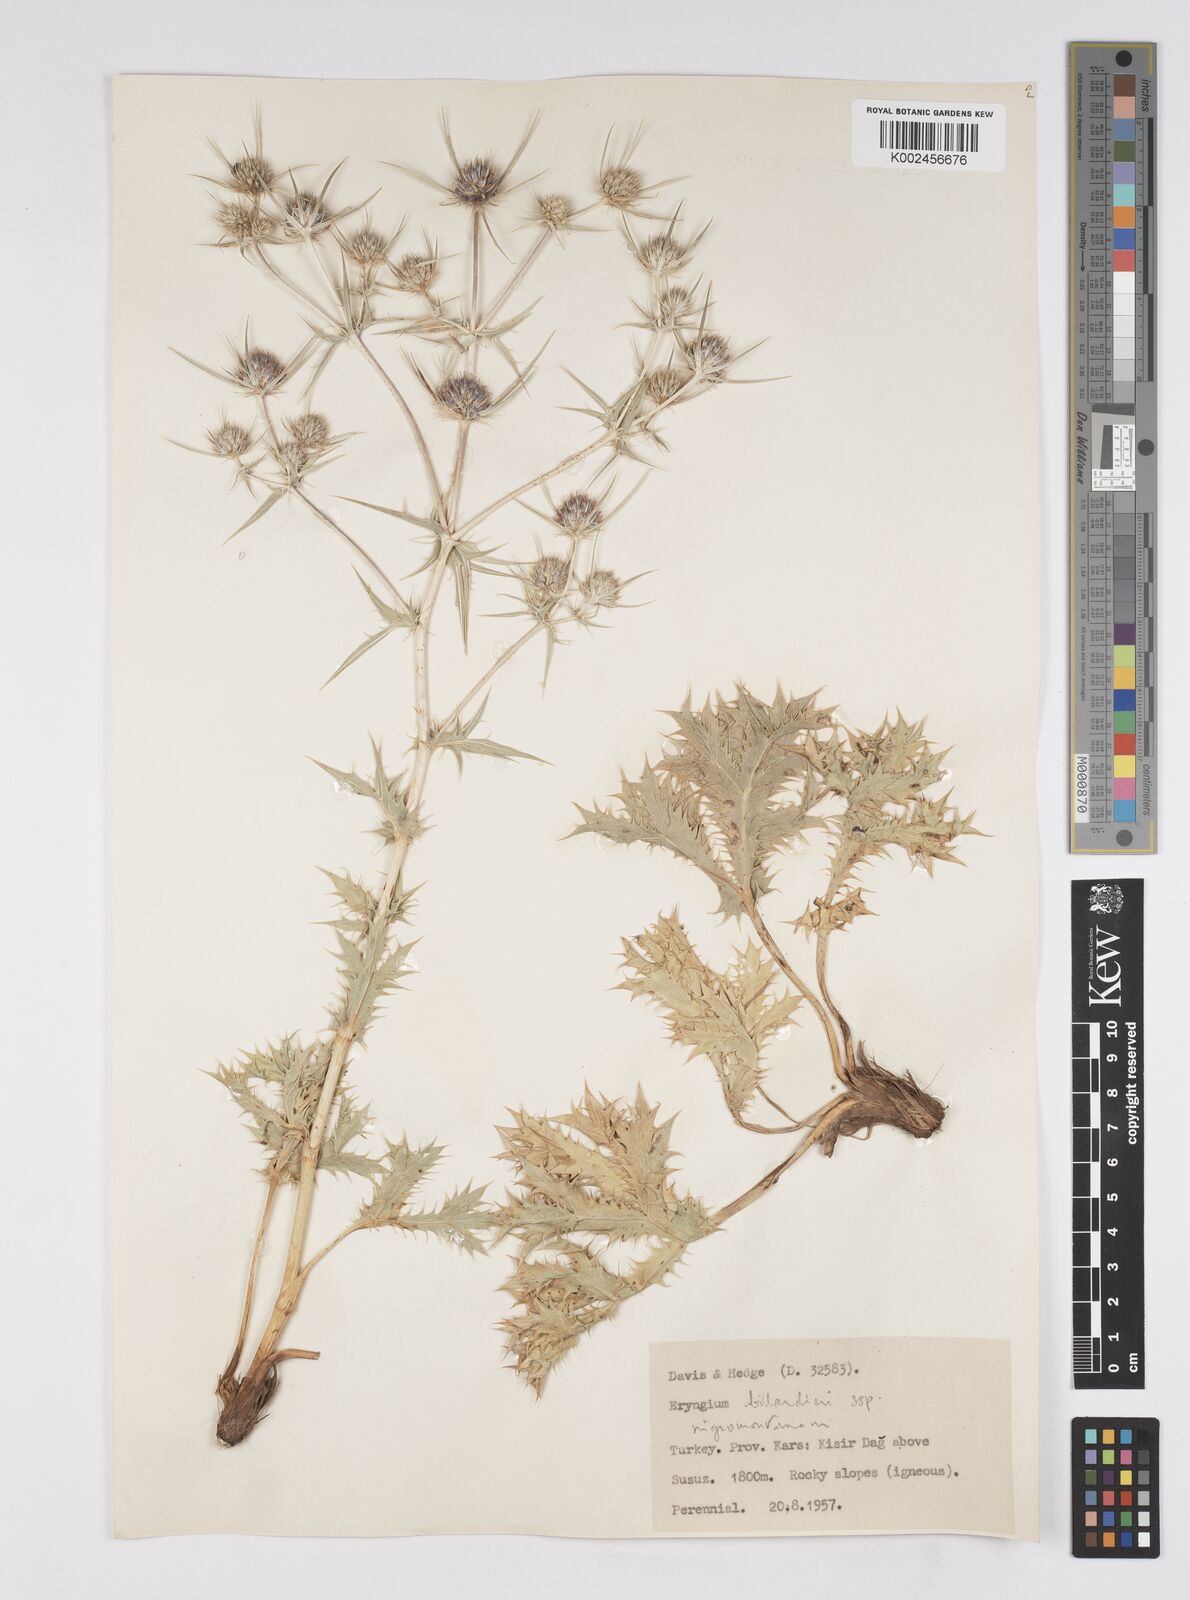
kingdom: Plantae
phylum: Tracheophyta
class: Magnoliopsida
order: Apiales
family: Apiaceae
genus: Eryngium
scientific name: Eryngium billardierei
